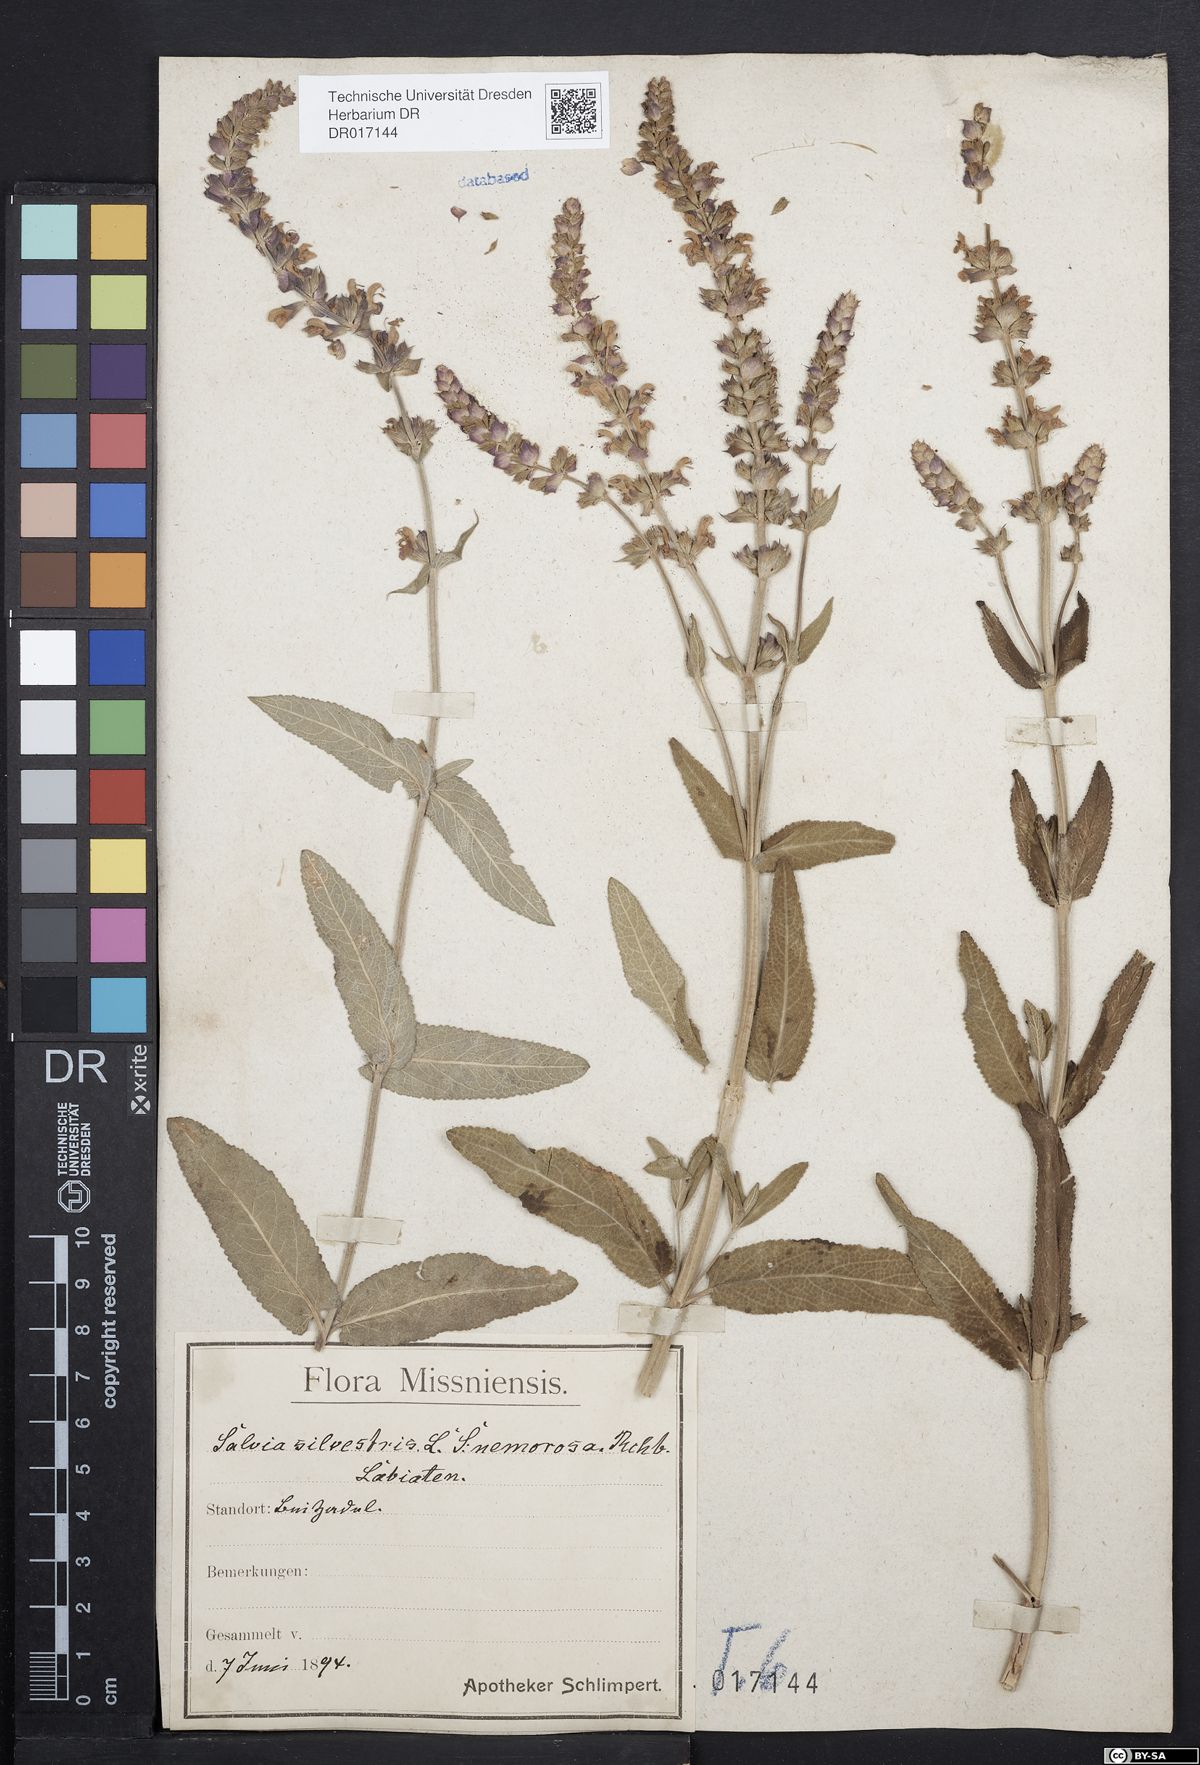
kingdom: Plantae
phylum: Tracheophyta
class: Magnoliopsida
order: Lamiales
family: Lamiaceae
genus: Salvia
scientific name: Salvia nemorosa
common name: Balkan clary
